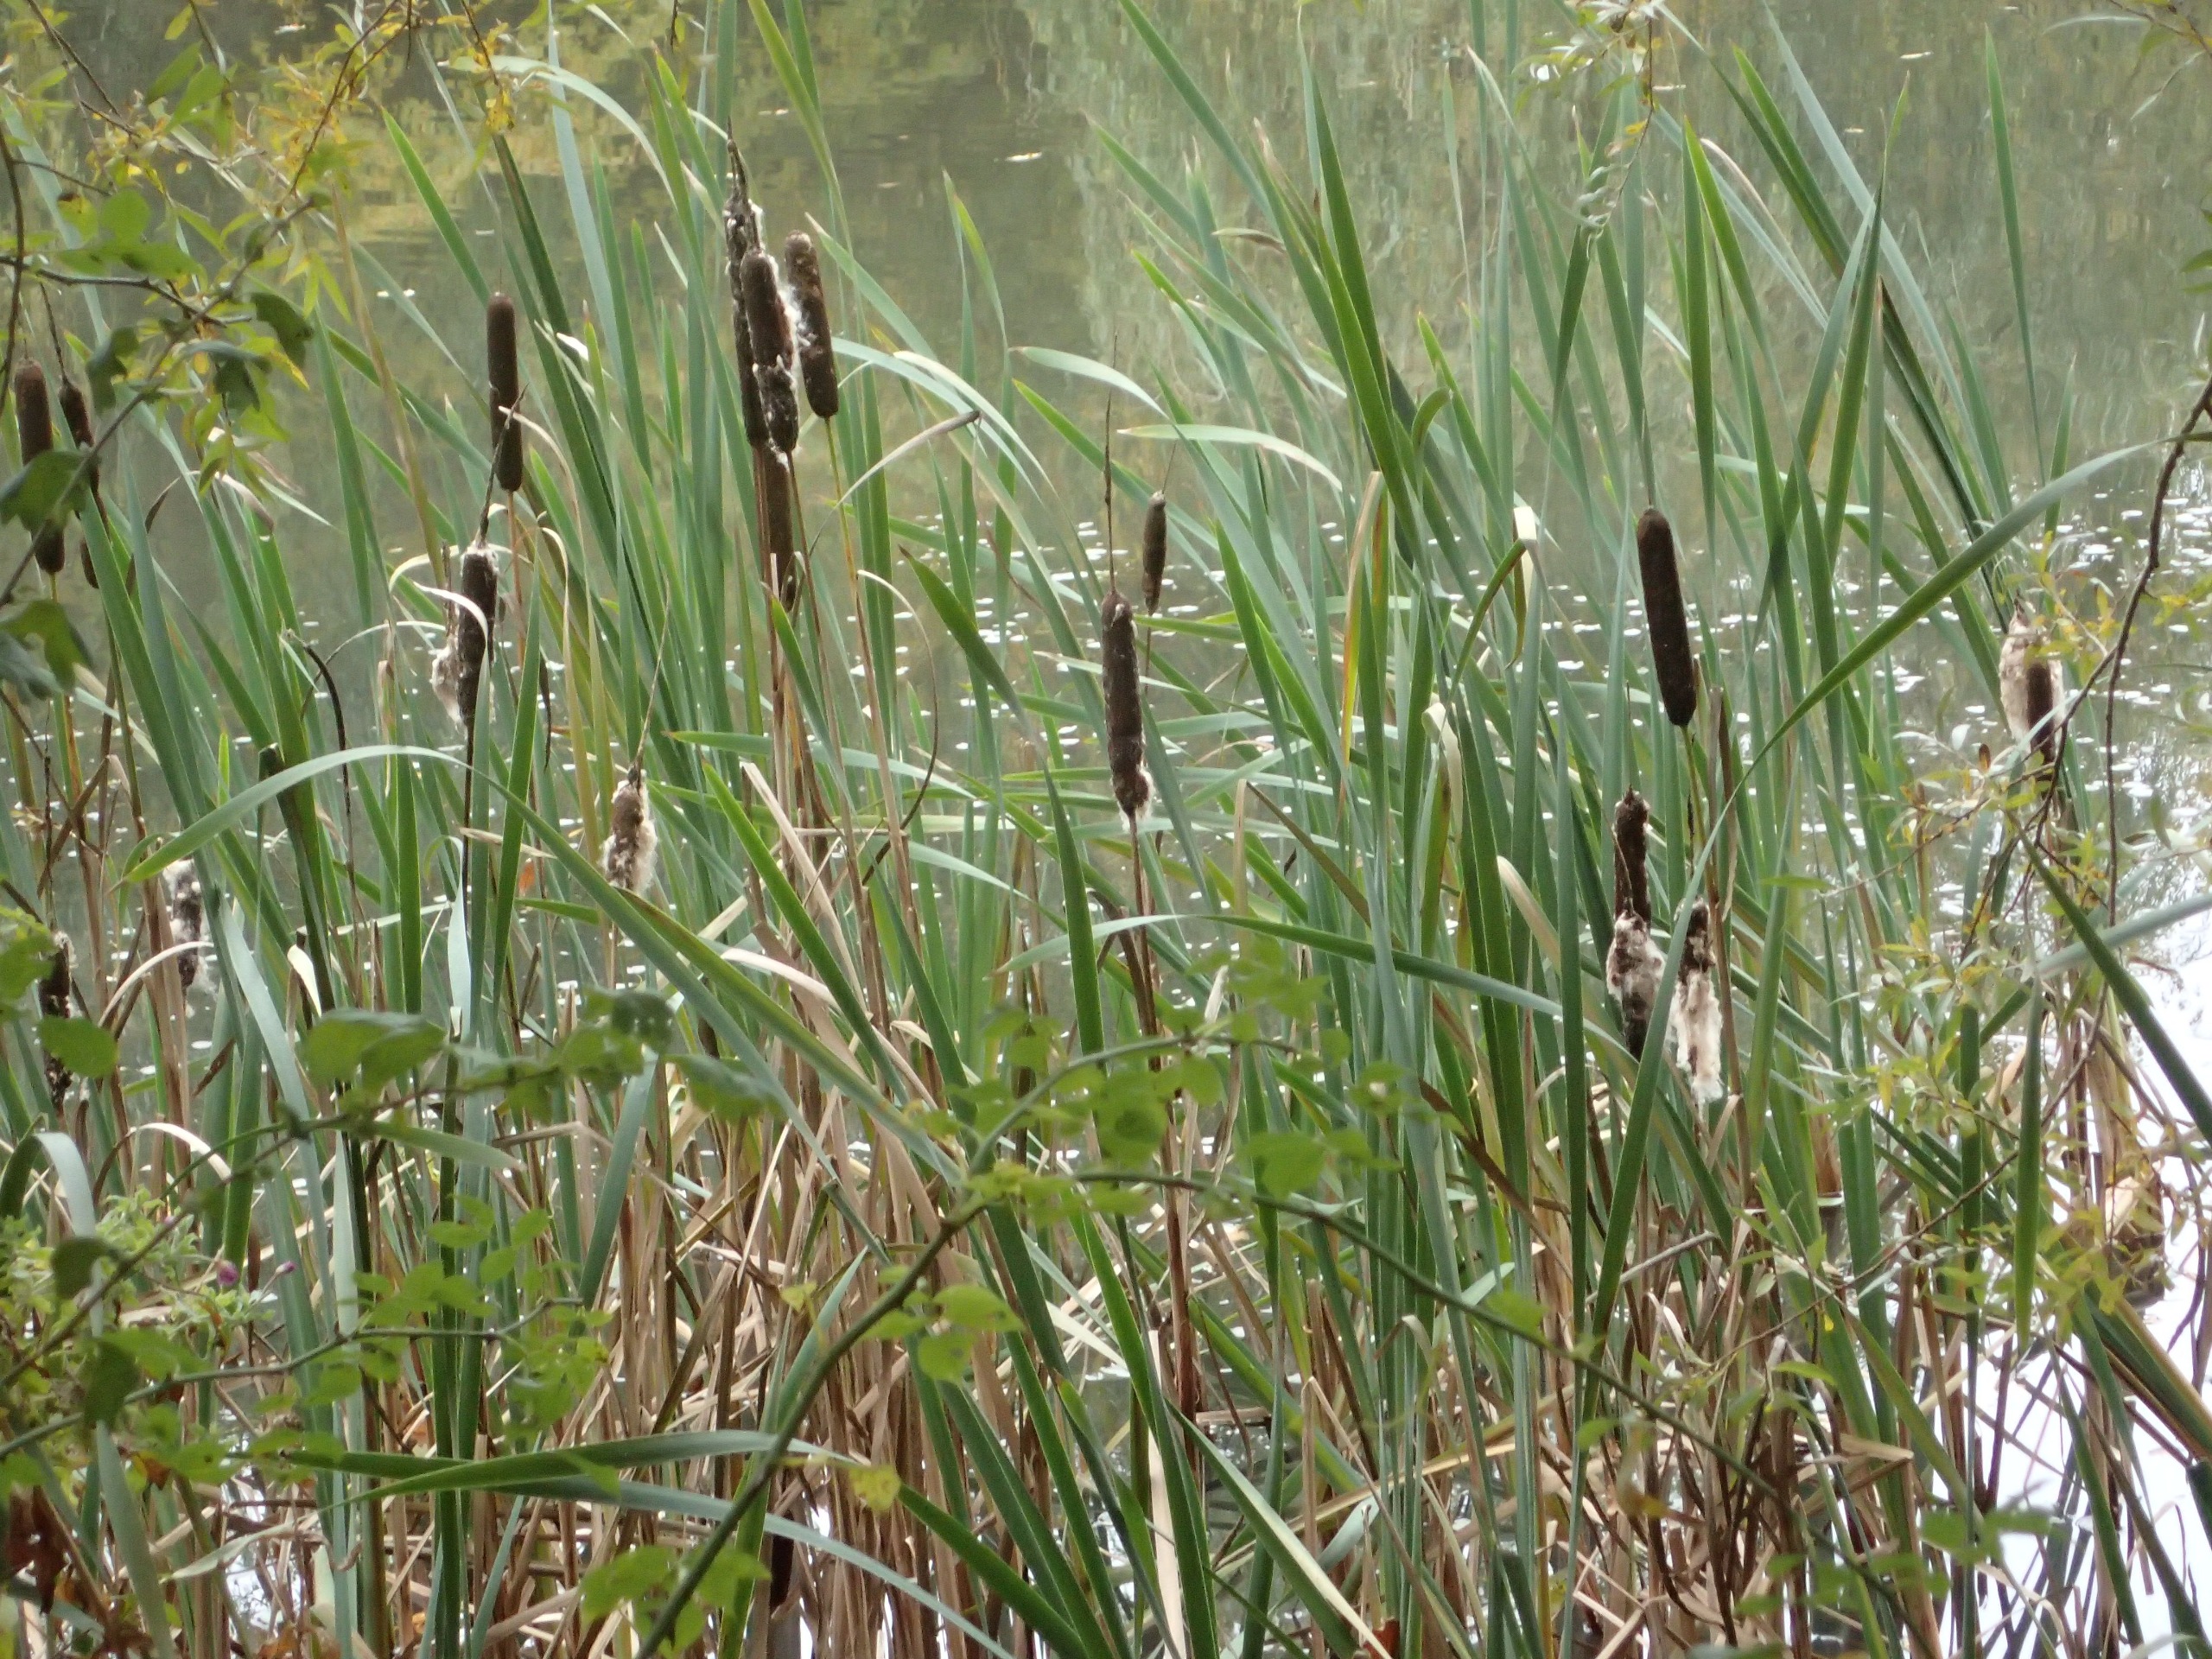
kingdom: Plantae
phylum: Tracheophyta
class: Liliopsida
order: Poales
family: Typhaceae
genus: Typha
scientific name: Typha latifolia
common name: Bredbladet dunhammer
